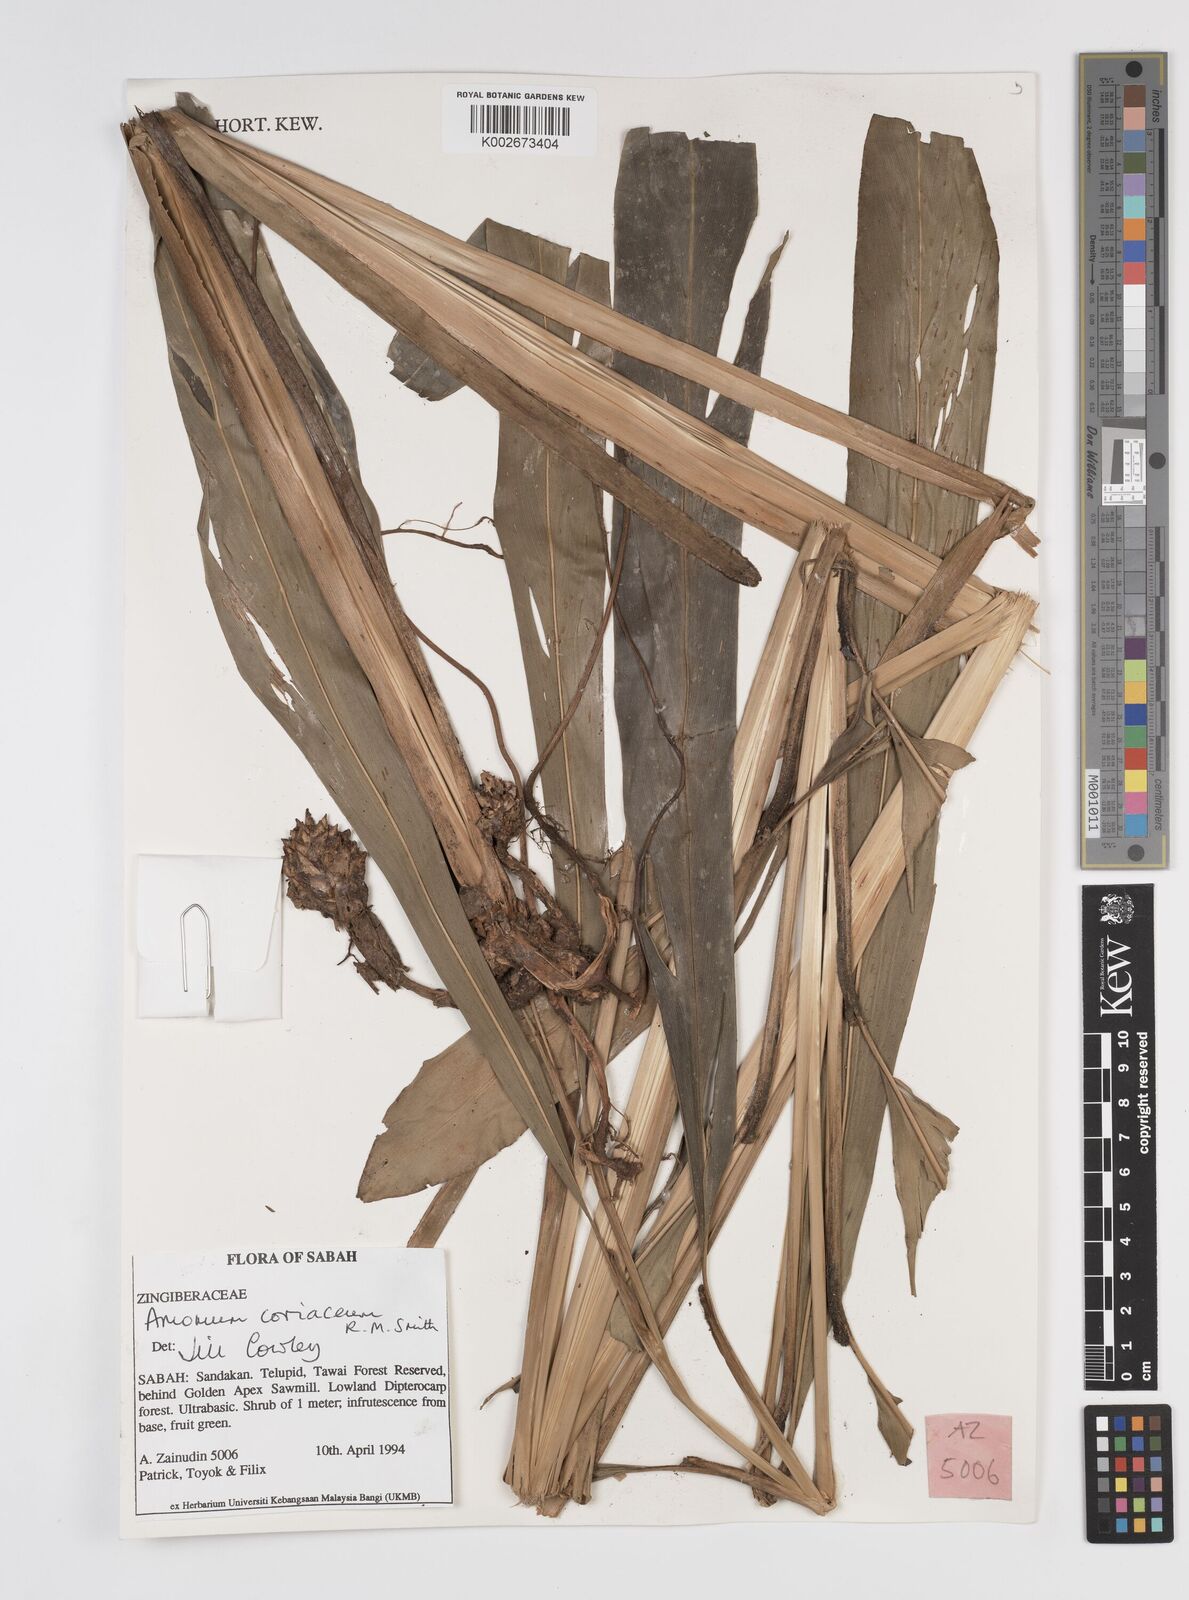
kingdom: Plantae
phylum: Tracheophyta
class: Liliopsida
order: Zingiberales
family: Zingiberaceae
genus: Conamomum
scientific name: Conamomum cylindrostachys
